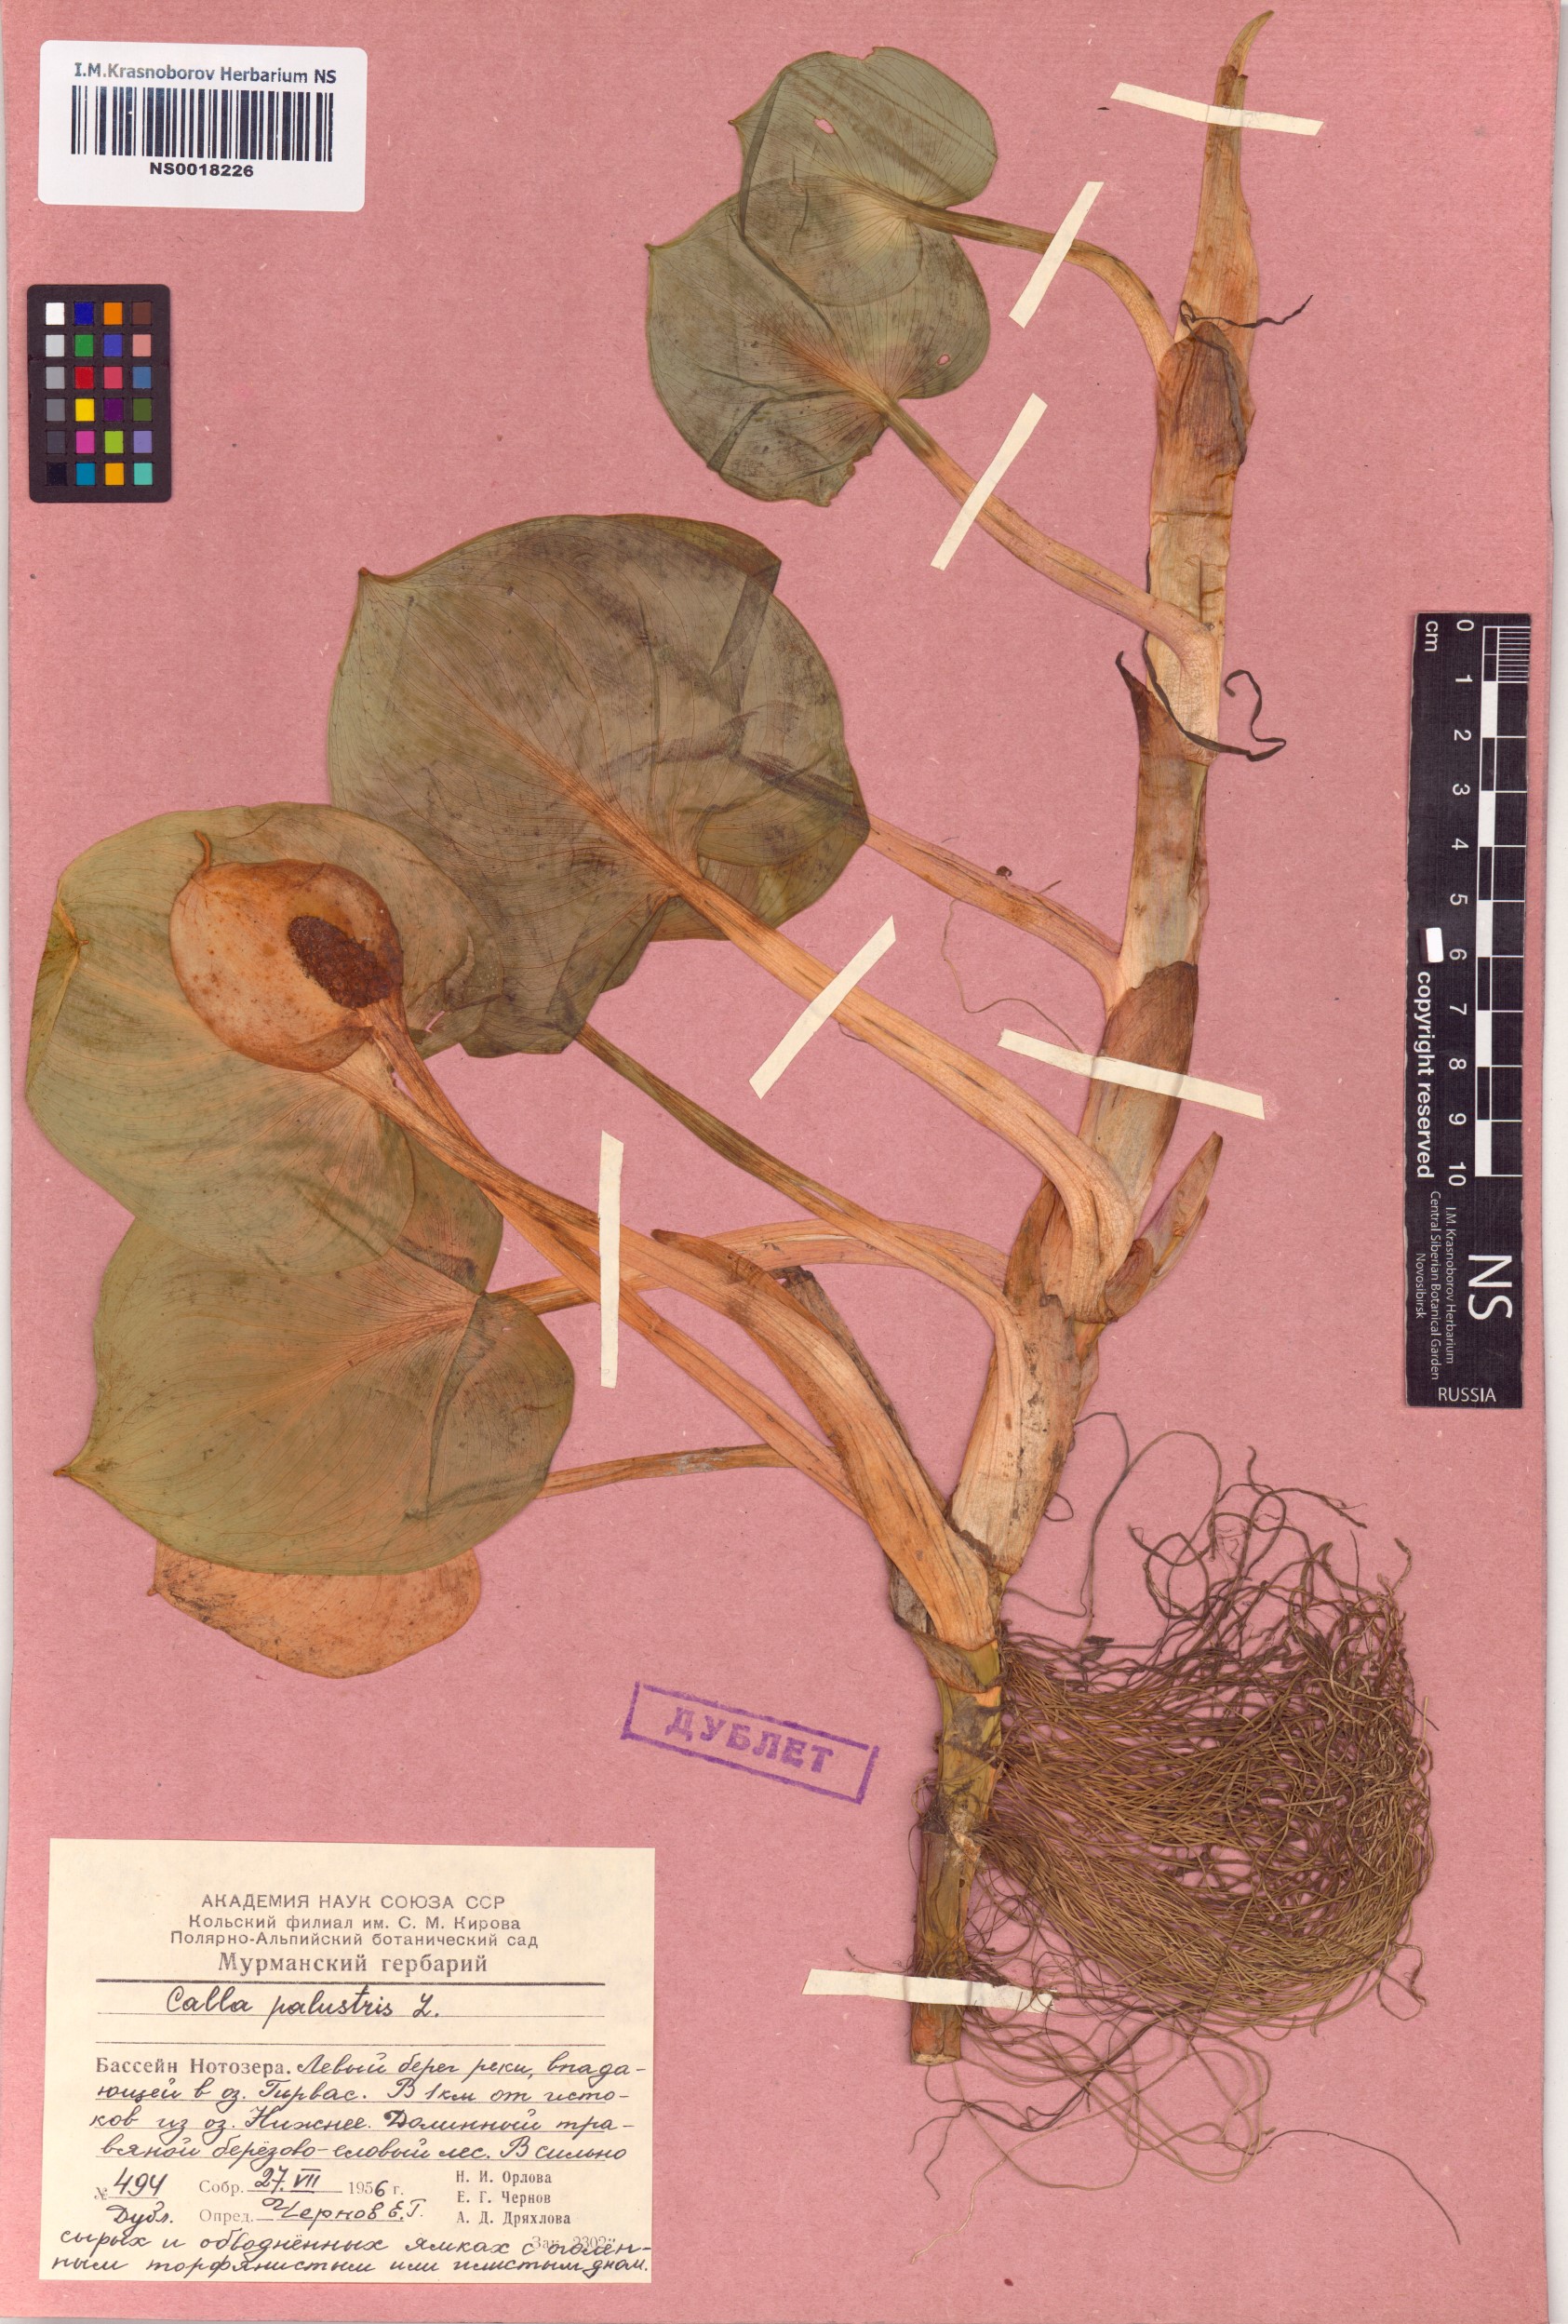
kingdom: Plantae
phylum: Tracheophyta
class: Liliopsida
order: Alismatales
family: Araceae
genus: Calla
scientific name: Calla palustris
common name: Bog arum
